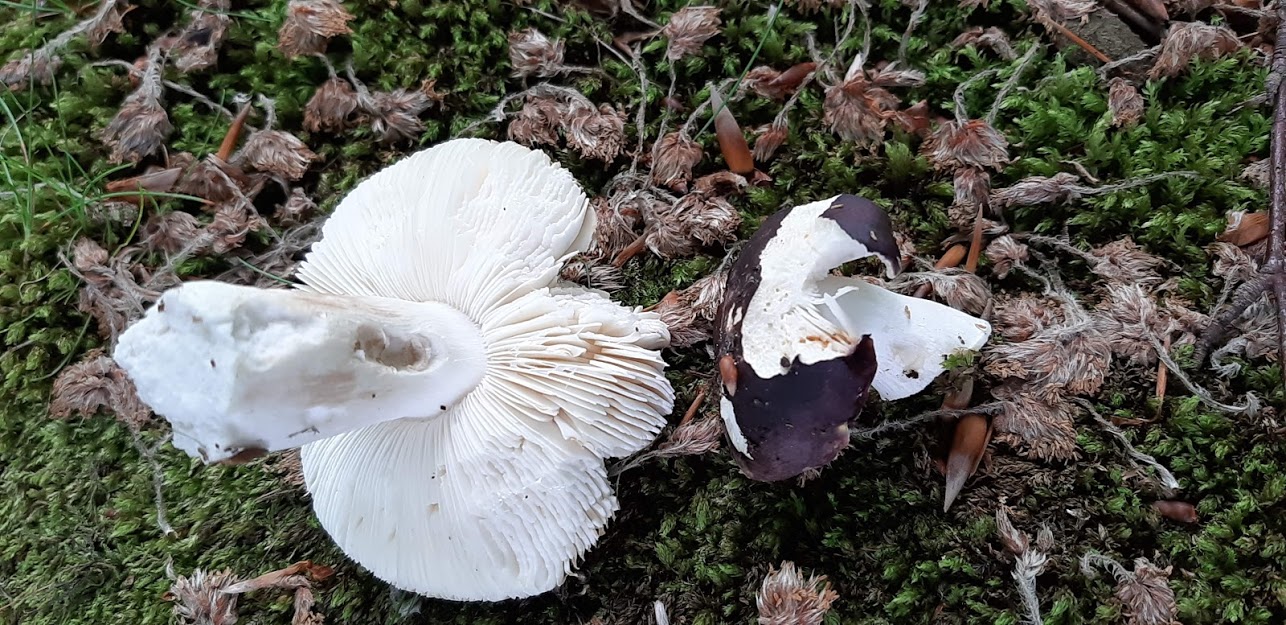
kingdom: Fungi
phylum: Basidiomycota
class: Agaricomycetes
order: Russulales
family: Russulaceae
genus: Russula
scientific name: Russula
